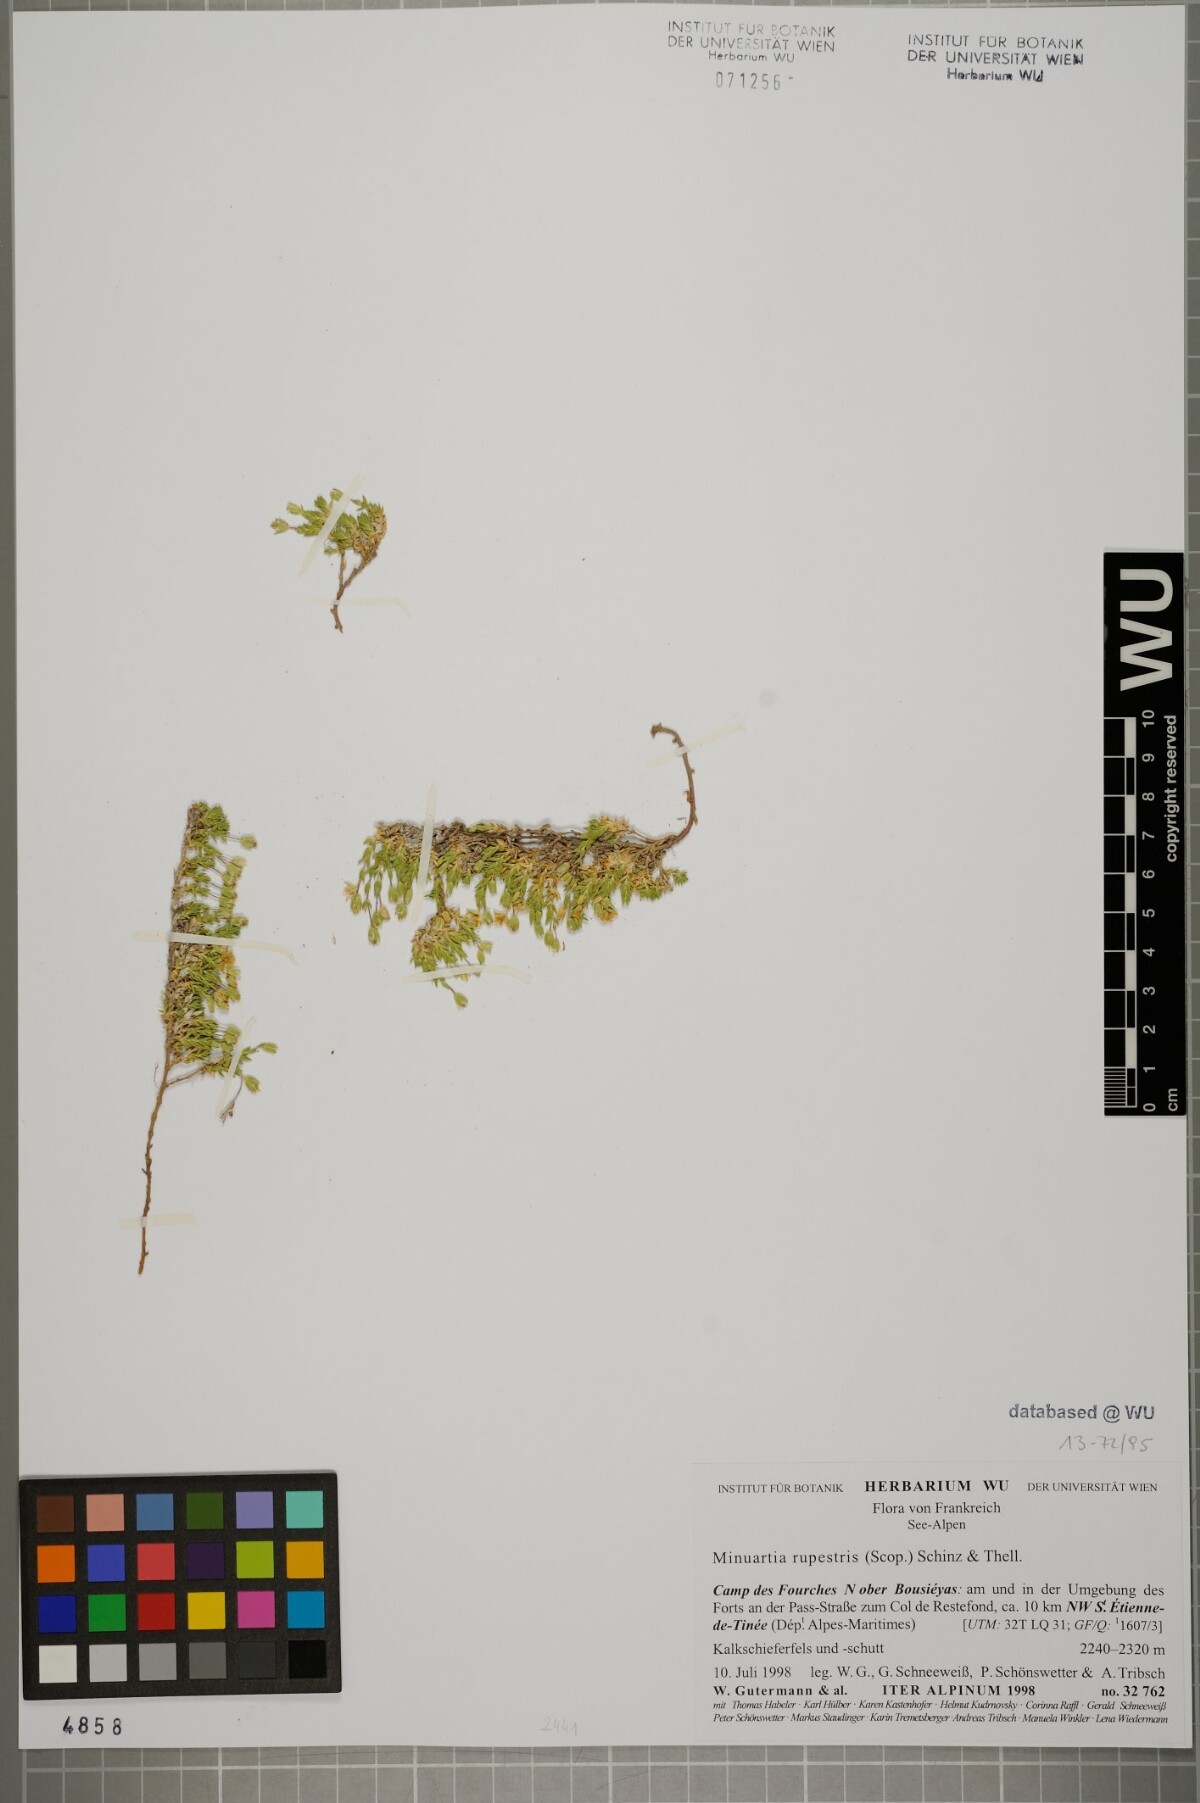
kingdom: Plantae
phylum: Tracheophyta
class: Magnoliopsida
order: Caryophyllales
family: Caryophyllaceae
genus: Facchinia
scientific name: Facchinia lanceolata
